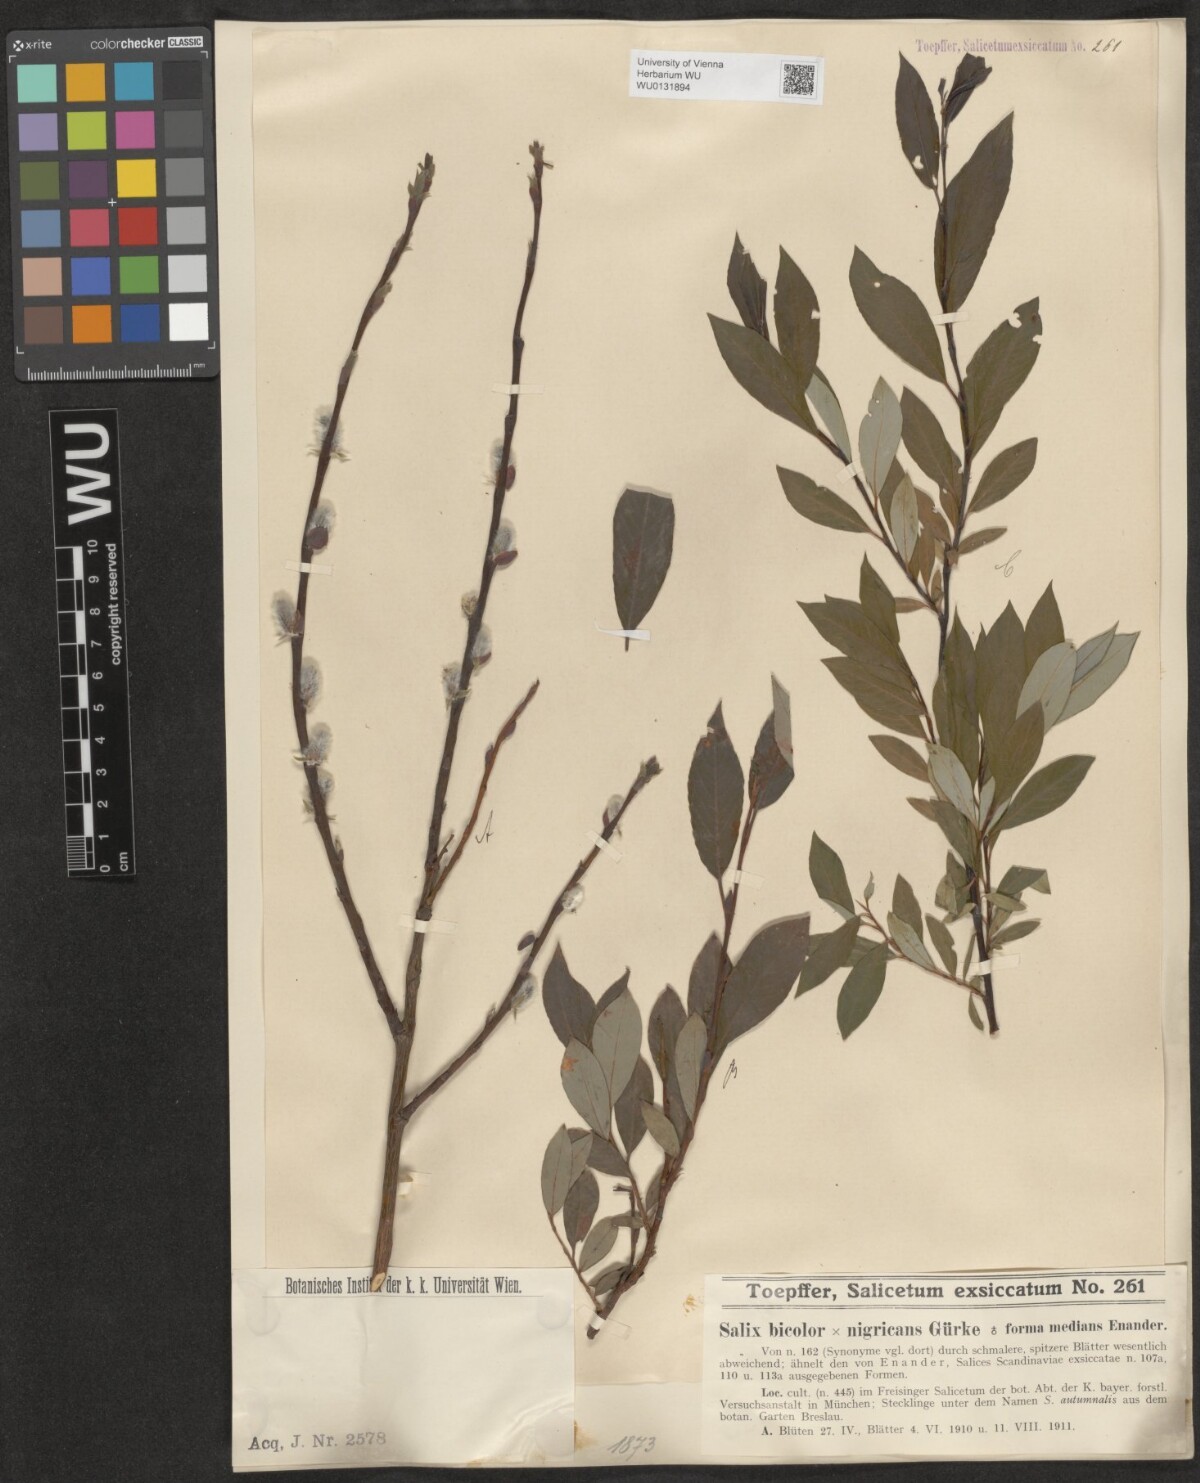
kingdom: Plantae
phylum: Tracheophyta
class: Magnoliopsida
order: Malpighiales
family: Salicaceae
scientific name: Salicaceae
